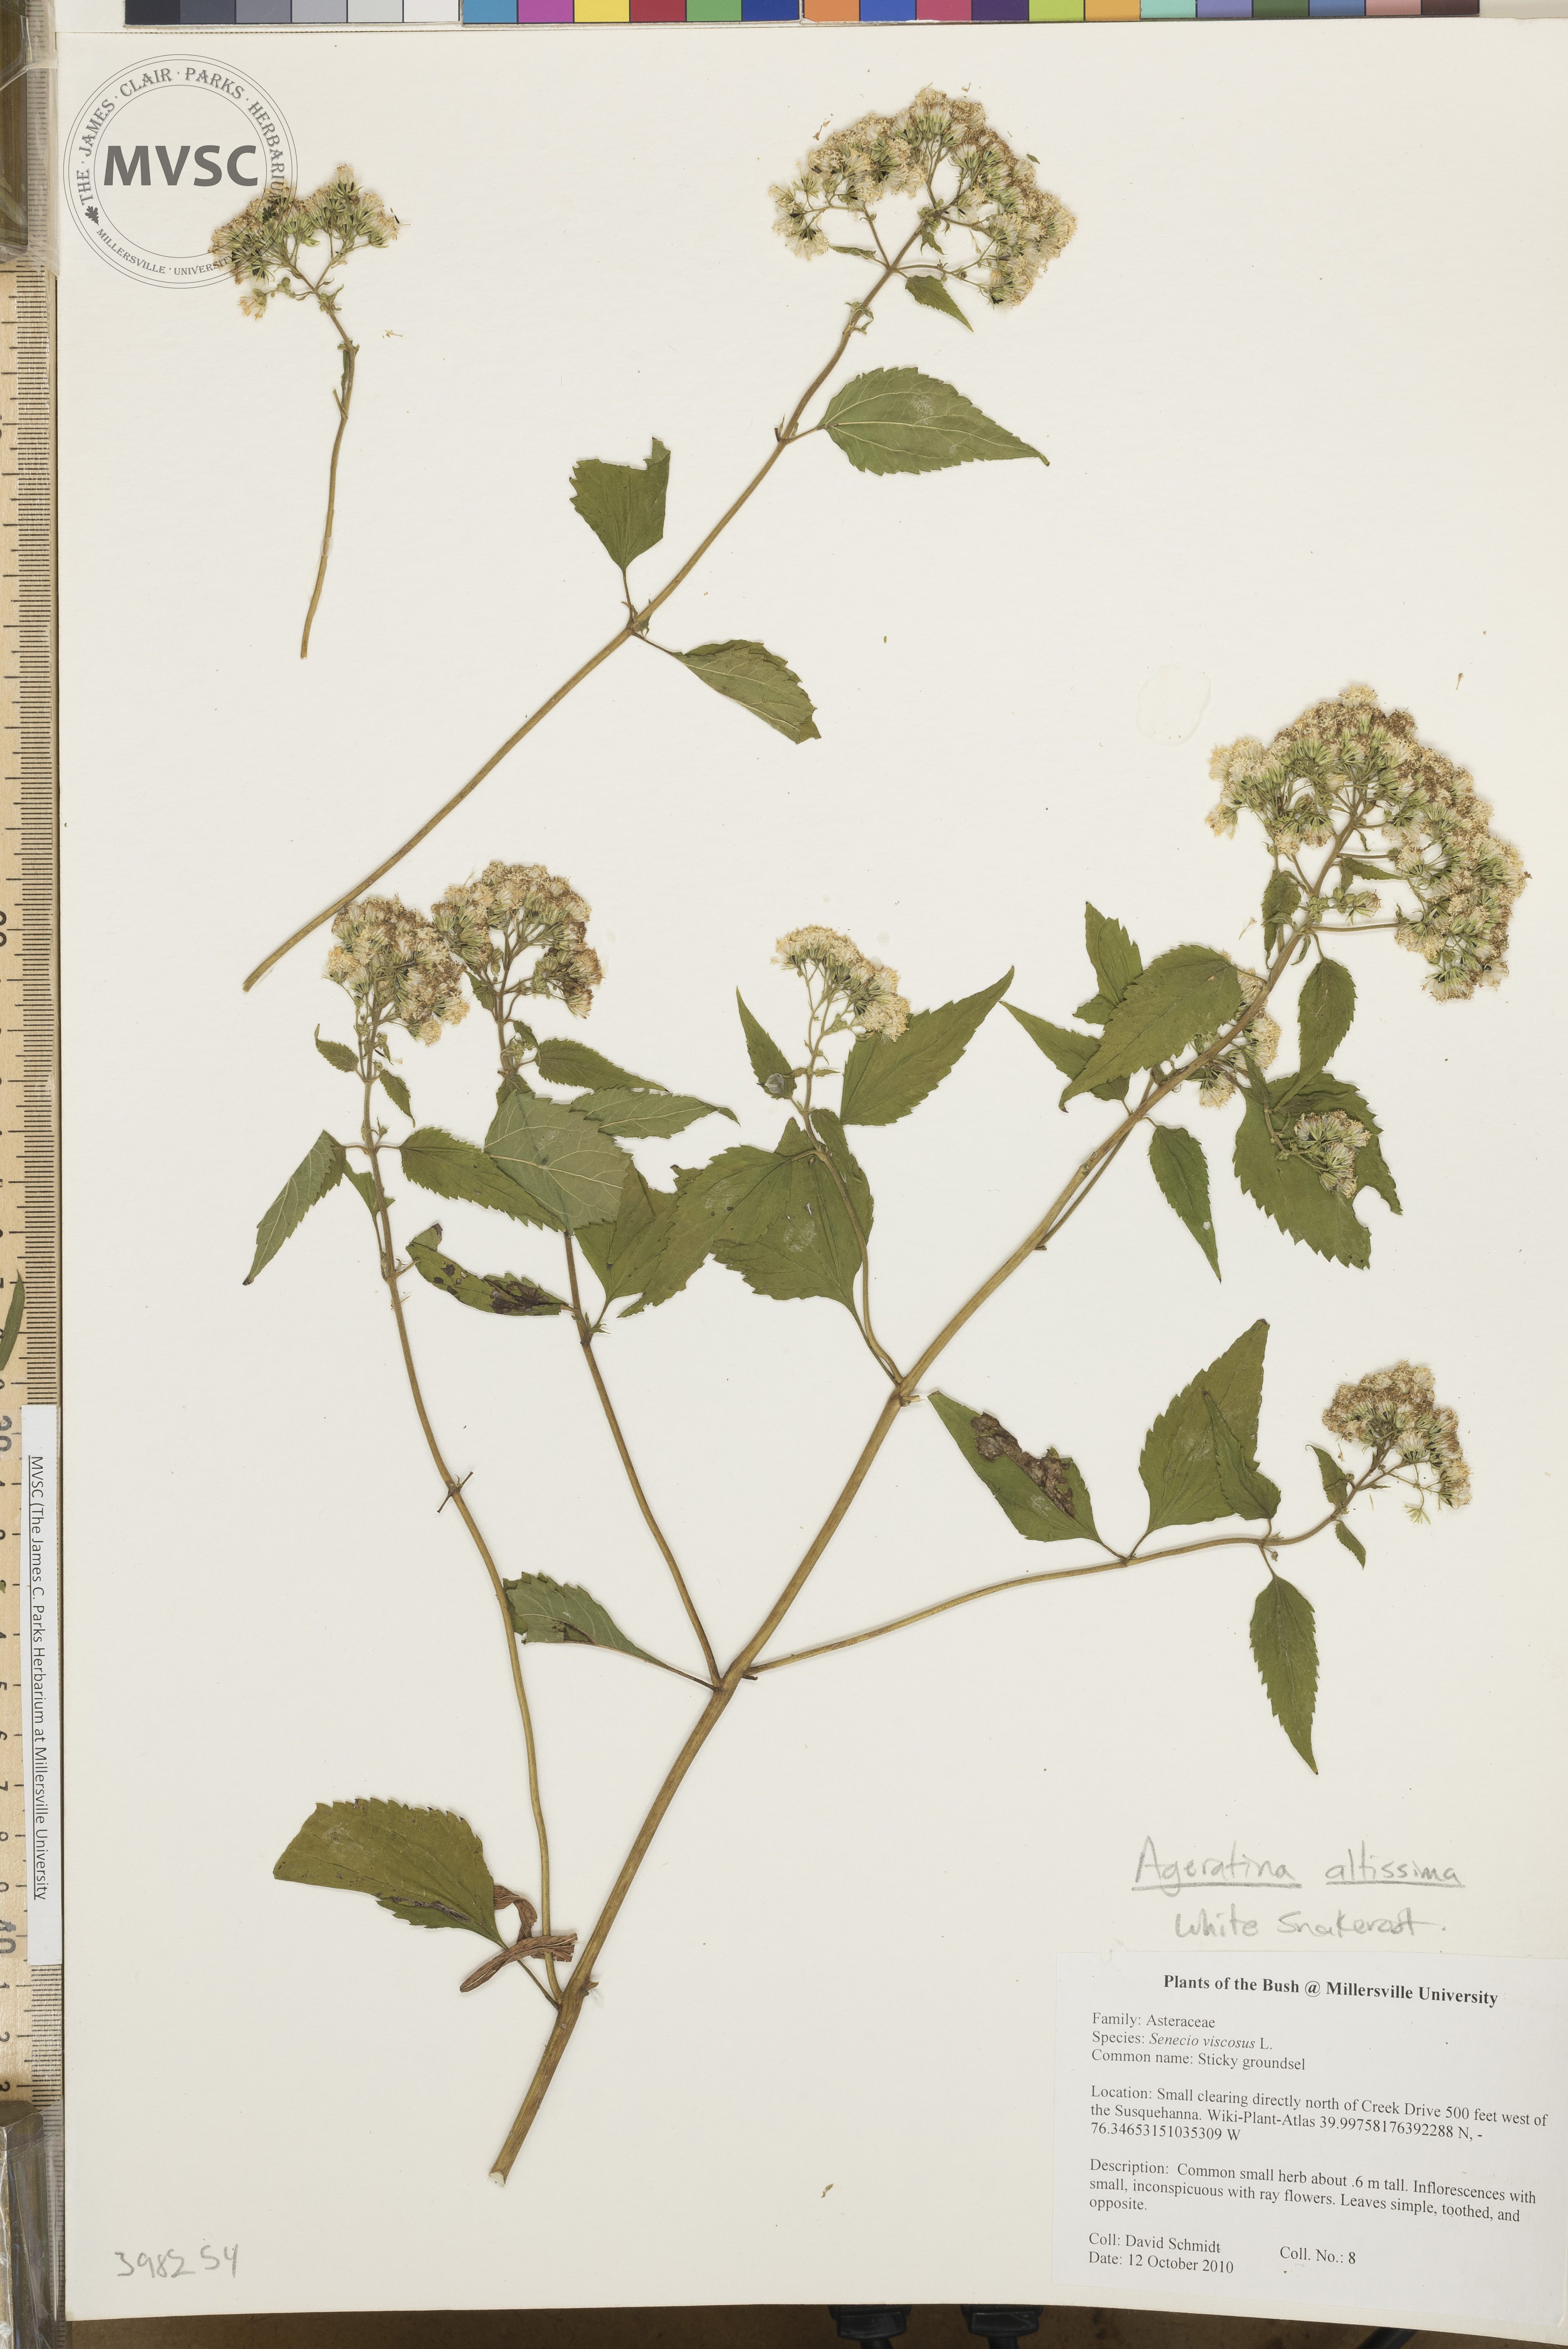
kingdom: Plantae
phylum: Tracheophyta
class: Magnoliopsida
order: Asterales
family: Asteraceae
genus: Ageratina
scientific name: Ageratina altissima
